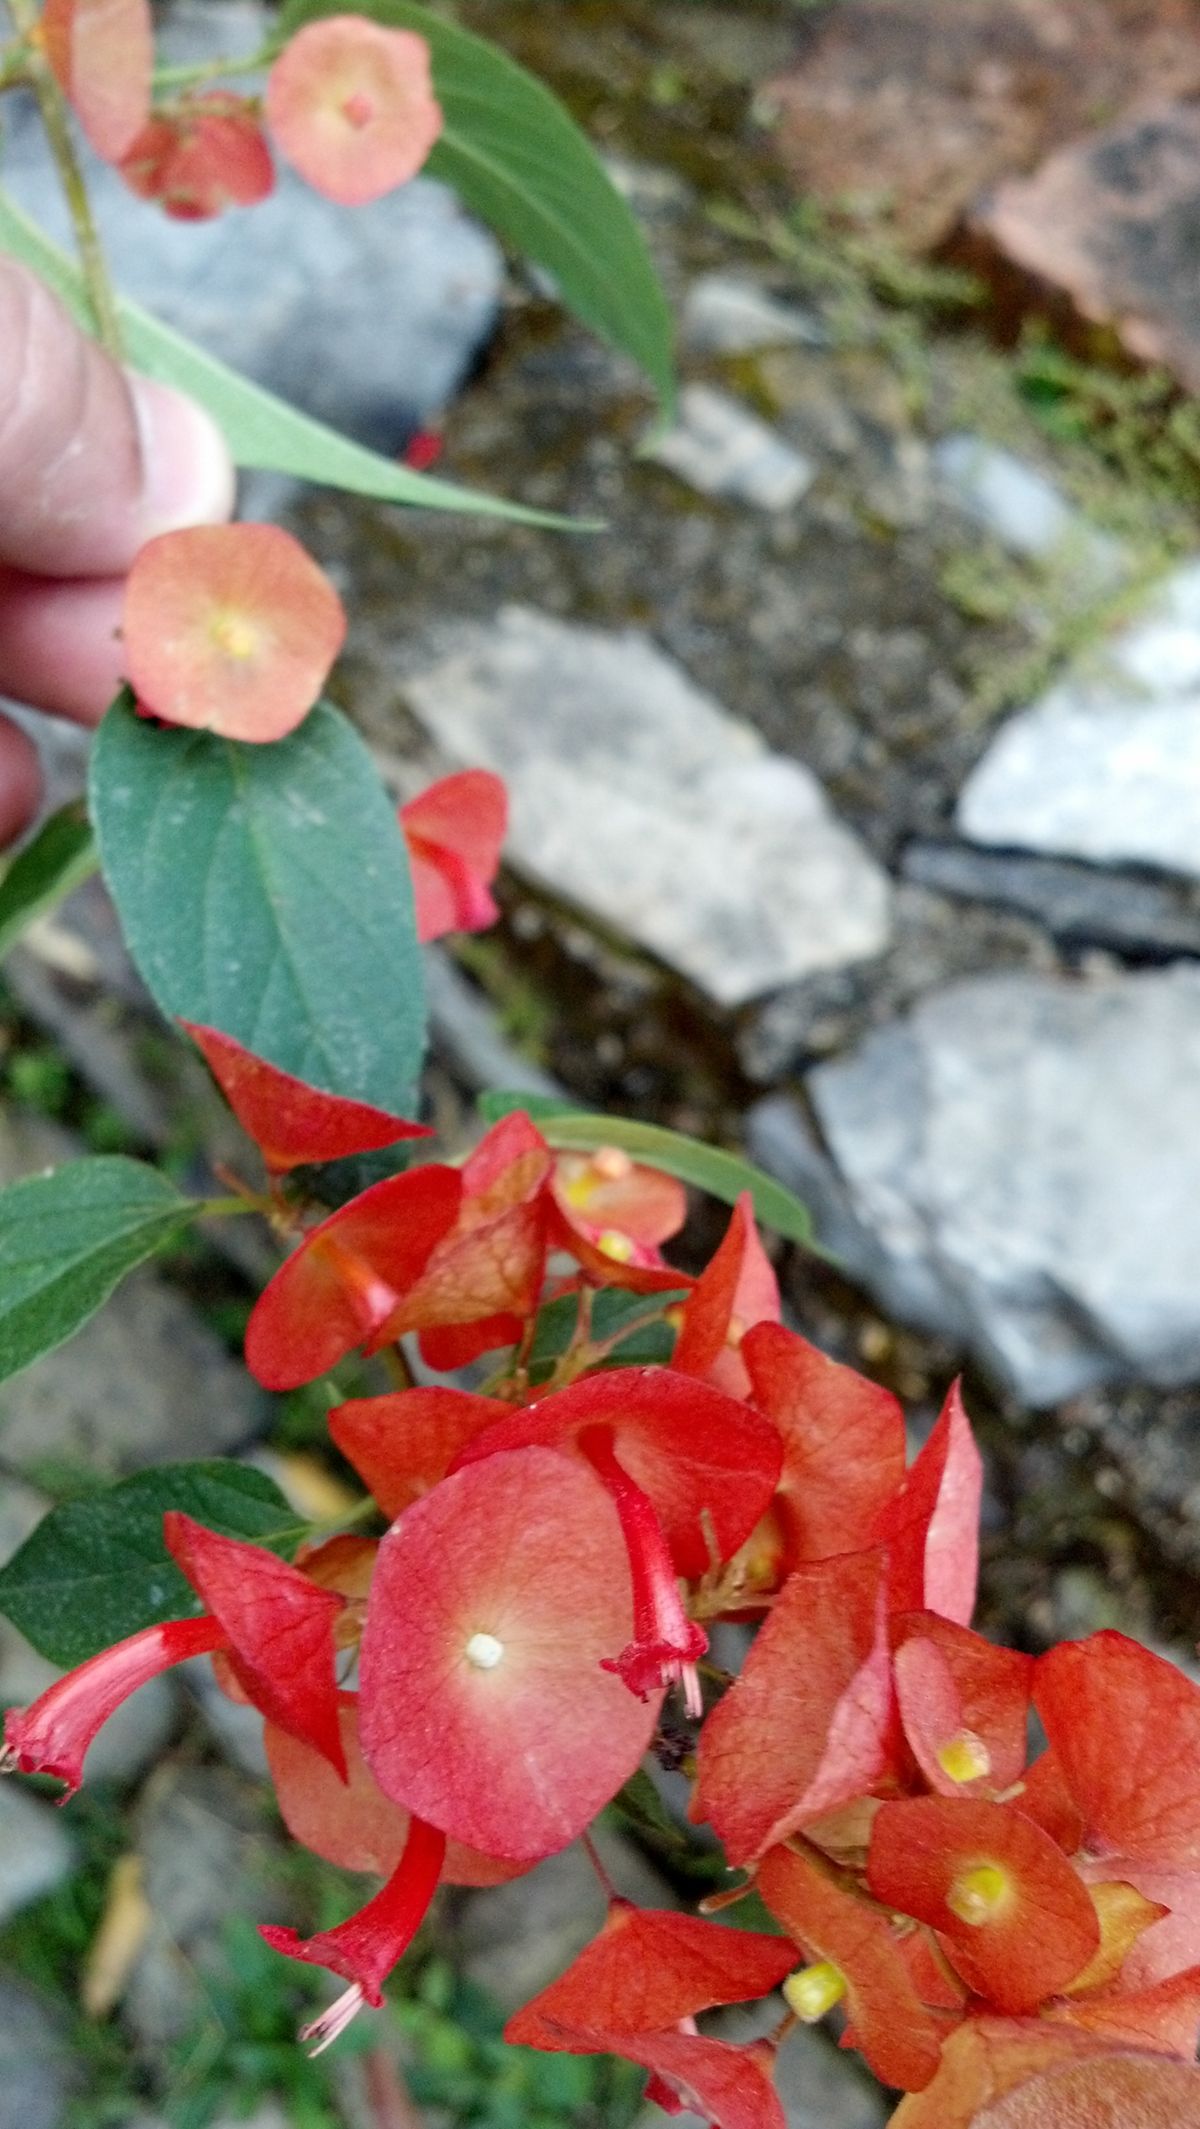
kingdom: Plantae
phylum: Tracheophyta
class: Magnoliopsida
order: Lamiales
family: Lamiaceae
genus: Holmskioldia
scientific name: Holmskioldia sanguinea
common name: Chinese hatplant
